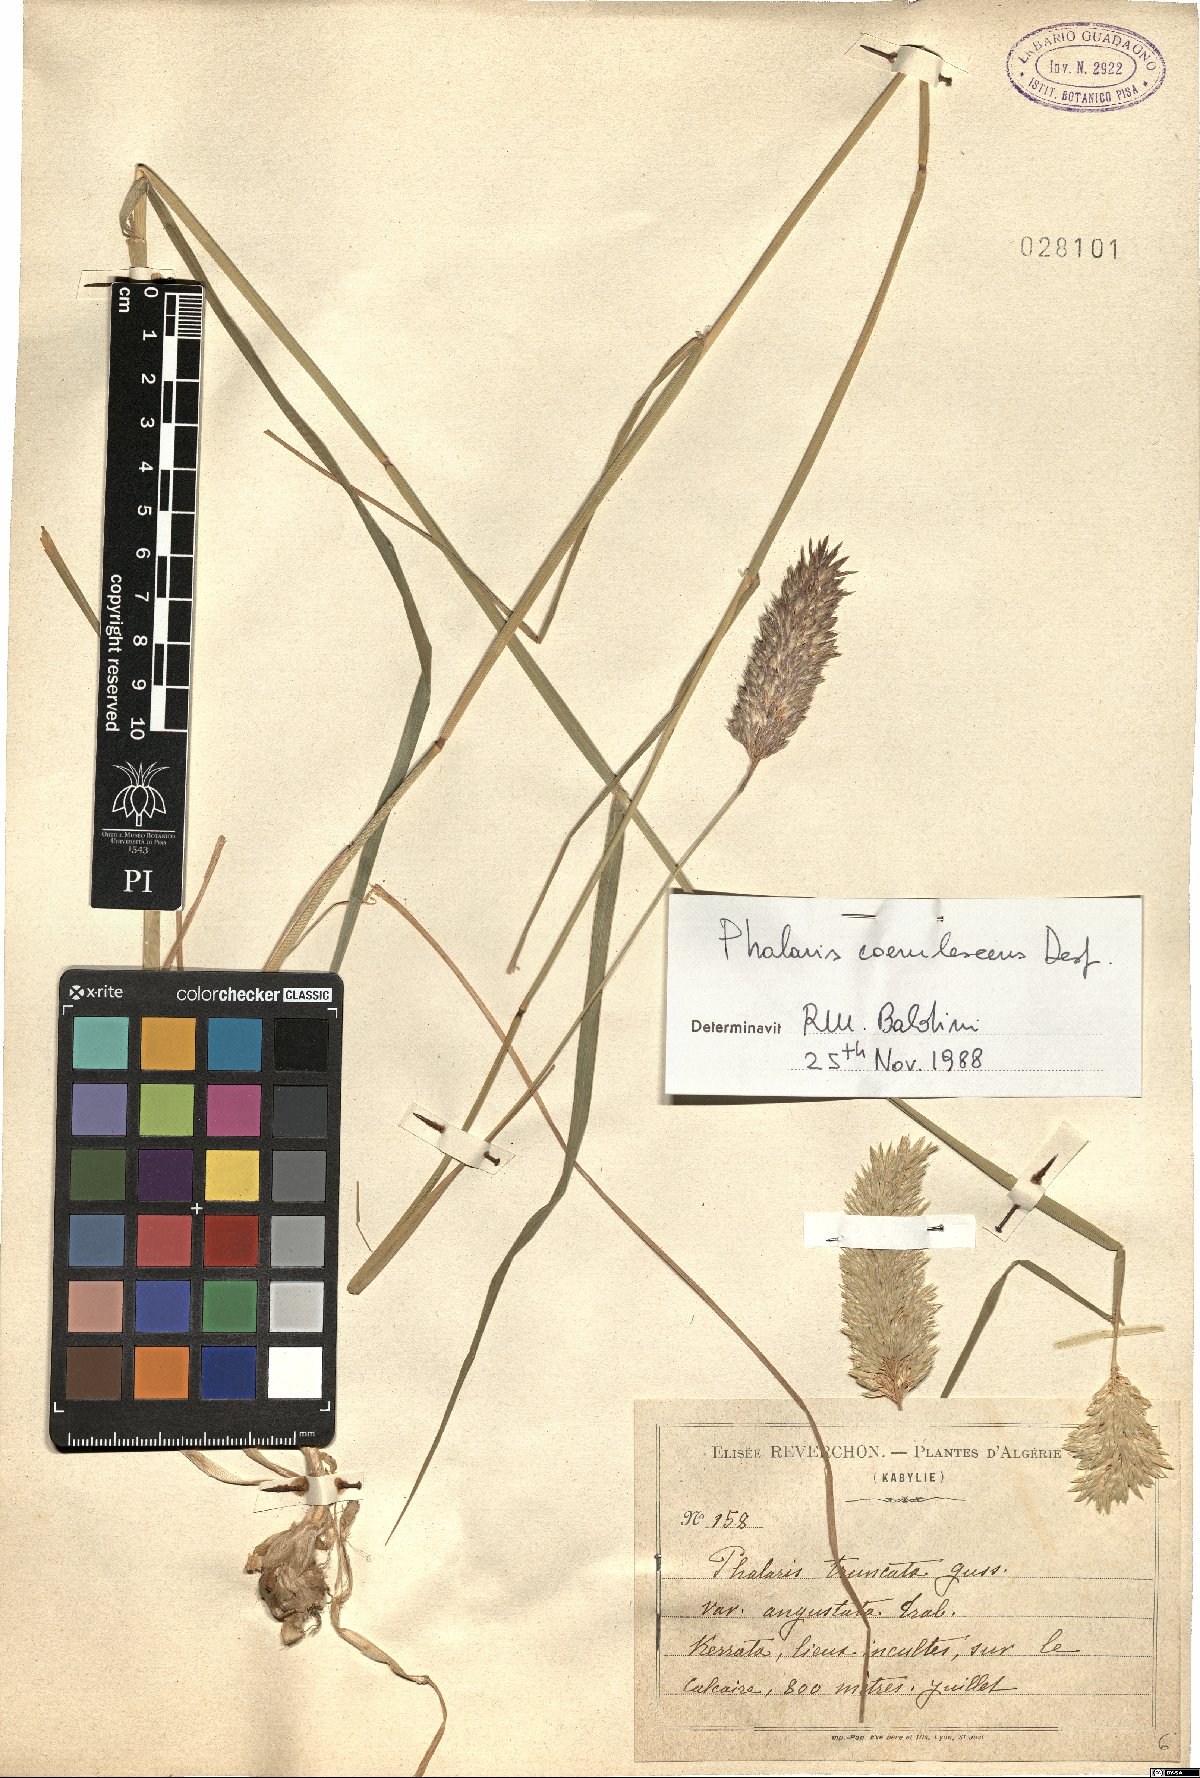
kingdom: Plantae
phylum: Tracheophyta
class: Liliopsida
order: Poales
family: Poaceae
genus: Phalaris
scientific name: Phalaris coerulescens
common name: Sunolgrass
